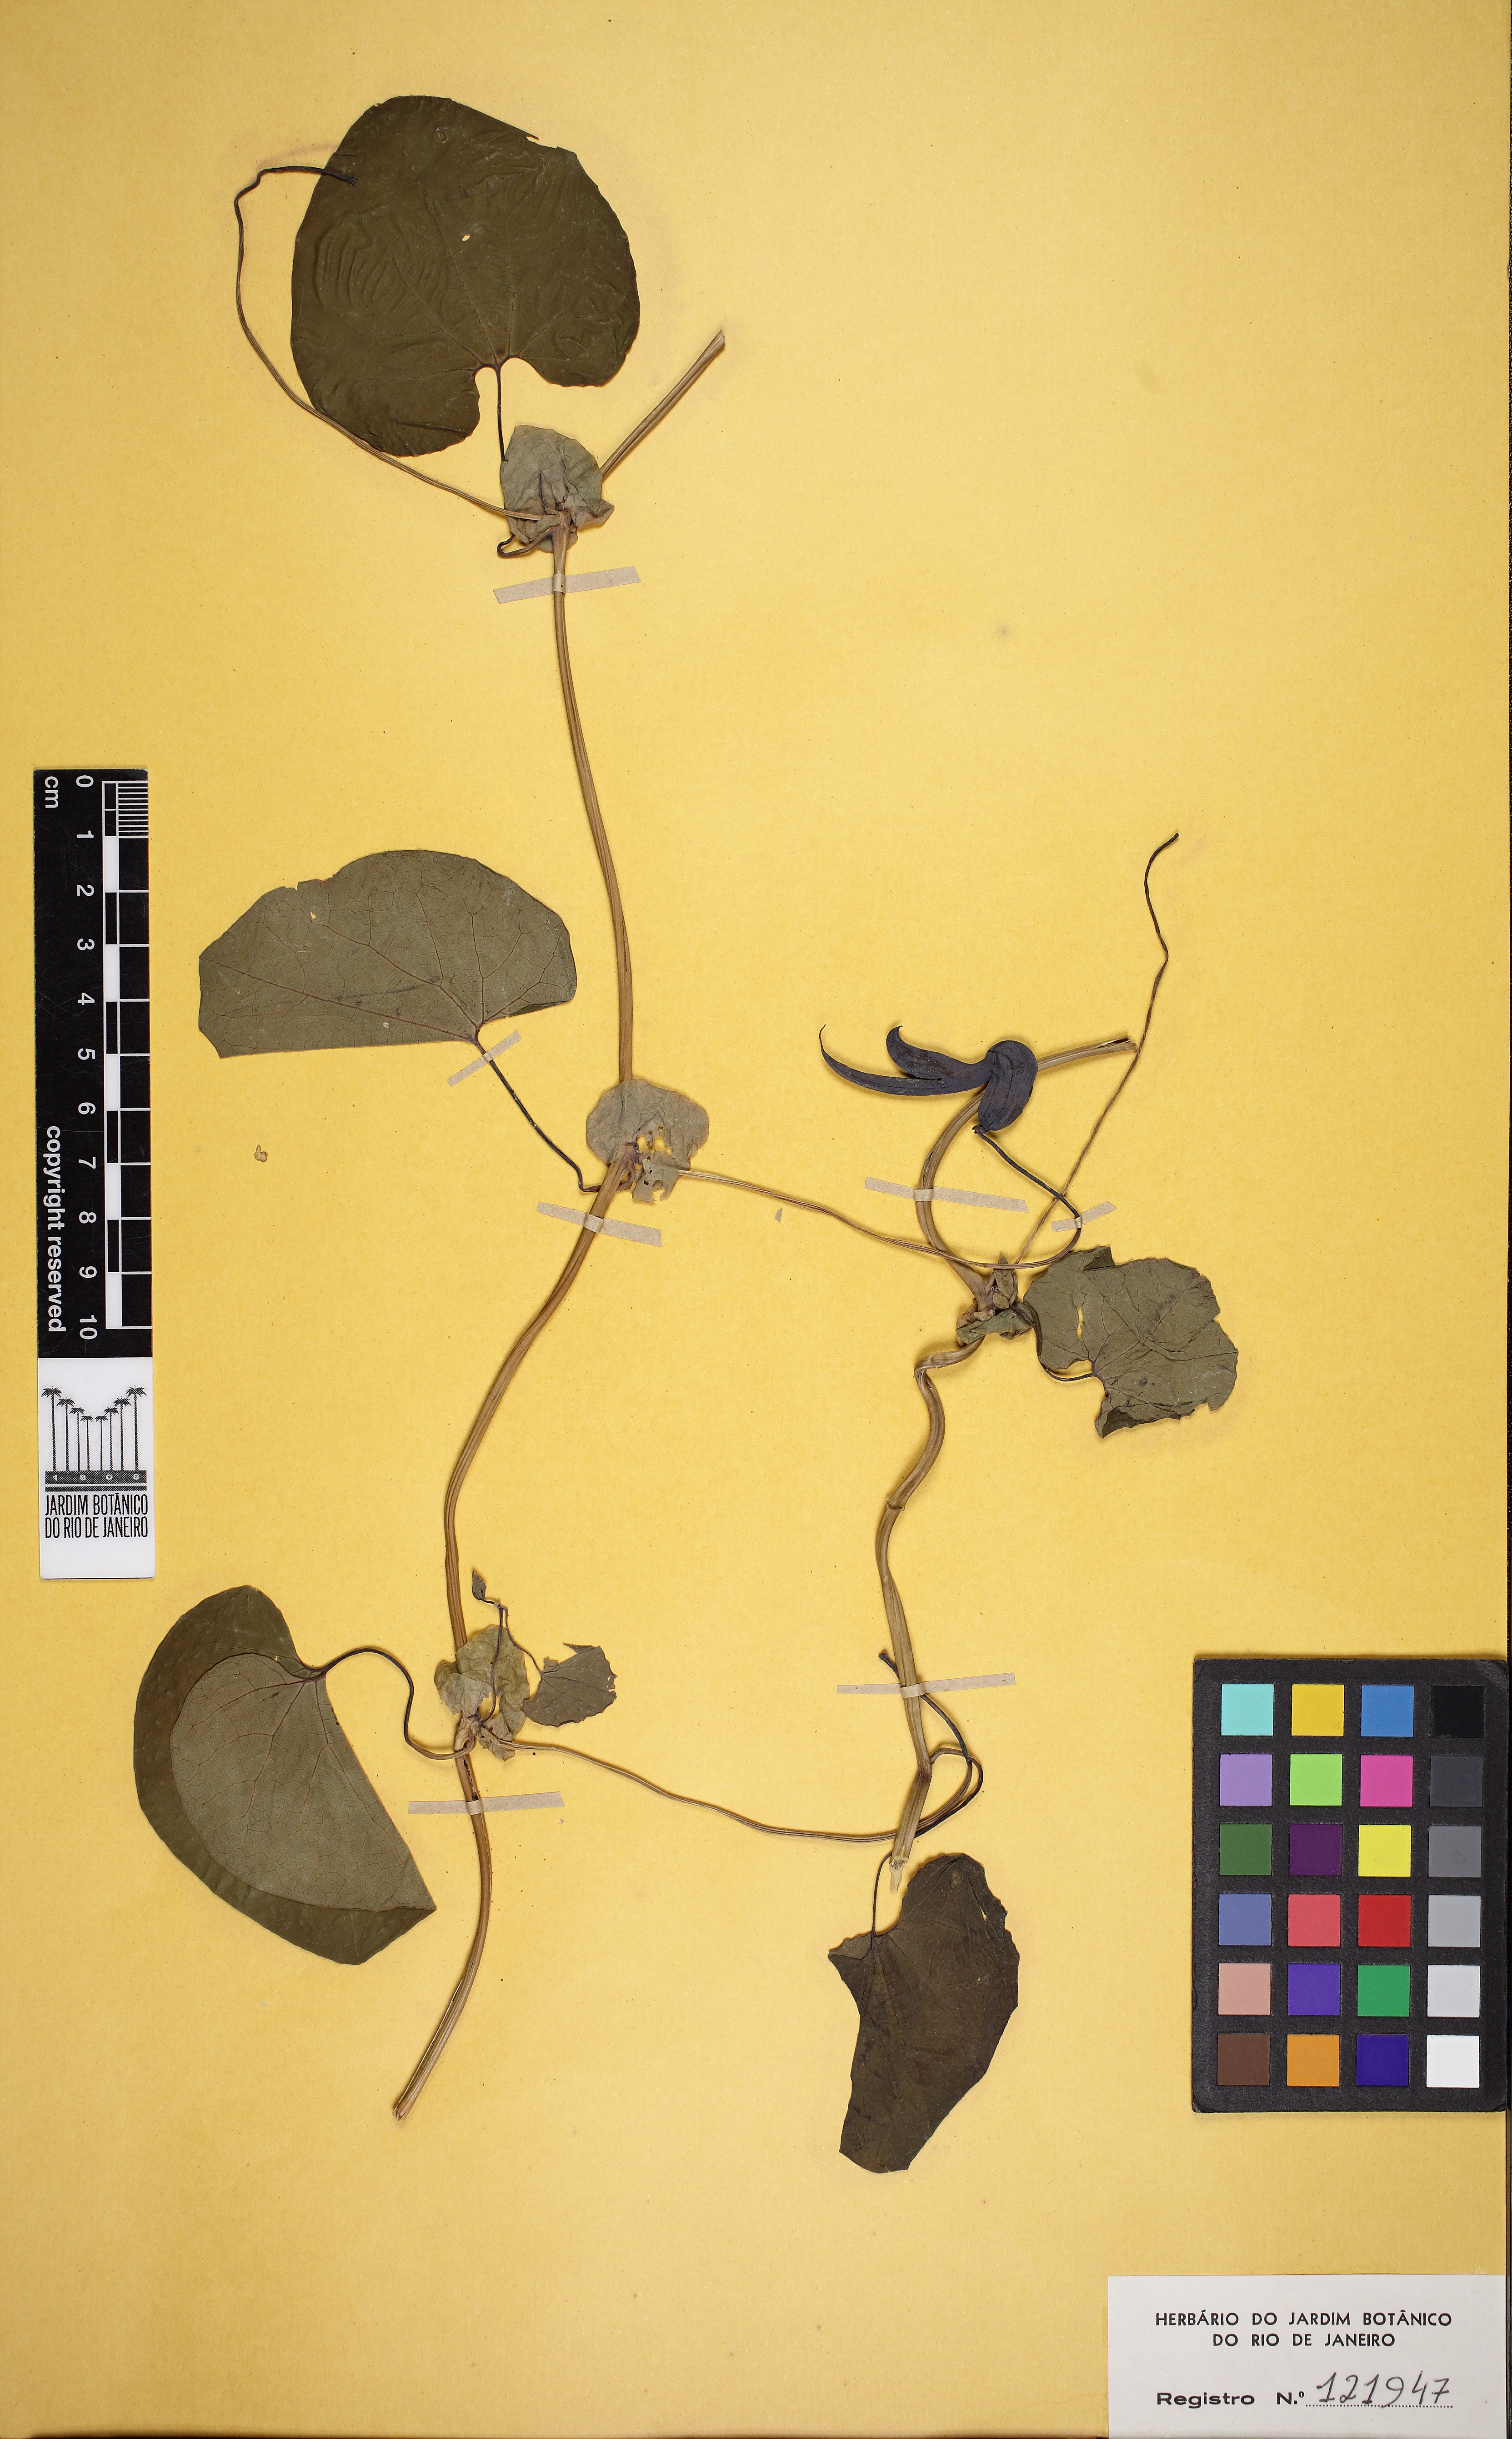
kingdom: Plantae
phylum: Tracheophyta
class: Magnoliopsida
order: Piperales
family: Aristolochiaceae
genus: Aristolochia
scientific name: Aristolochia pohliana
